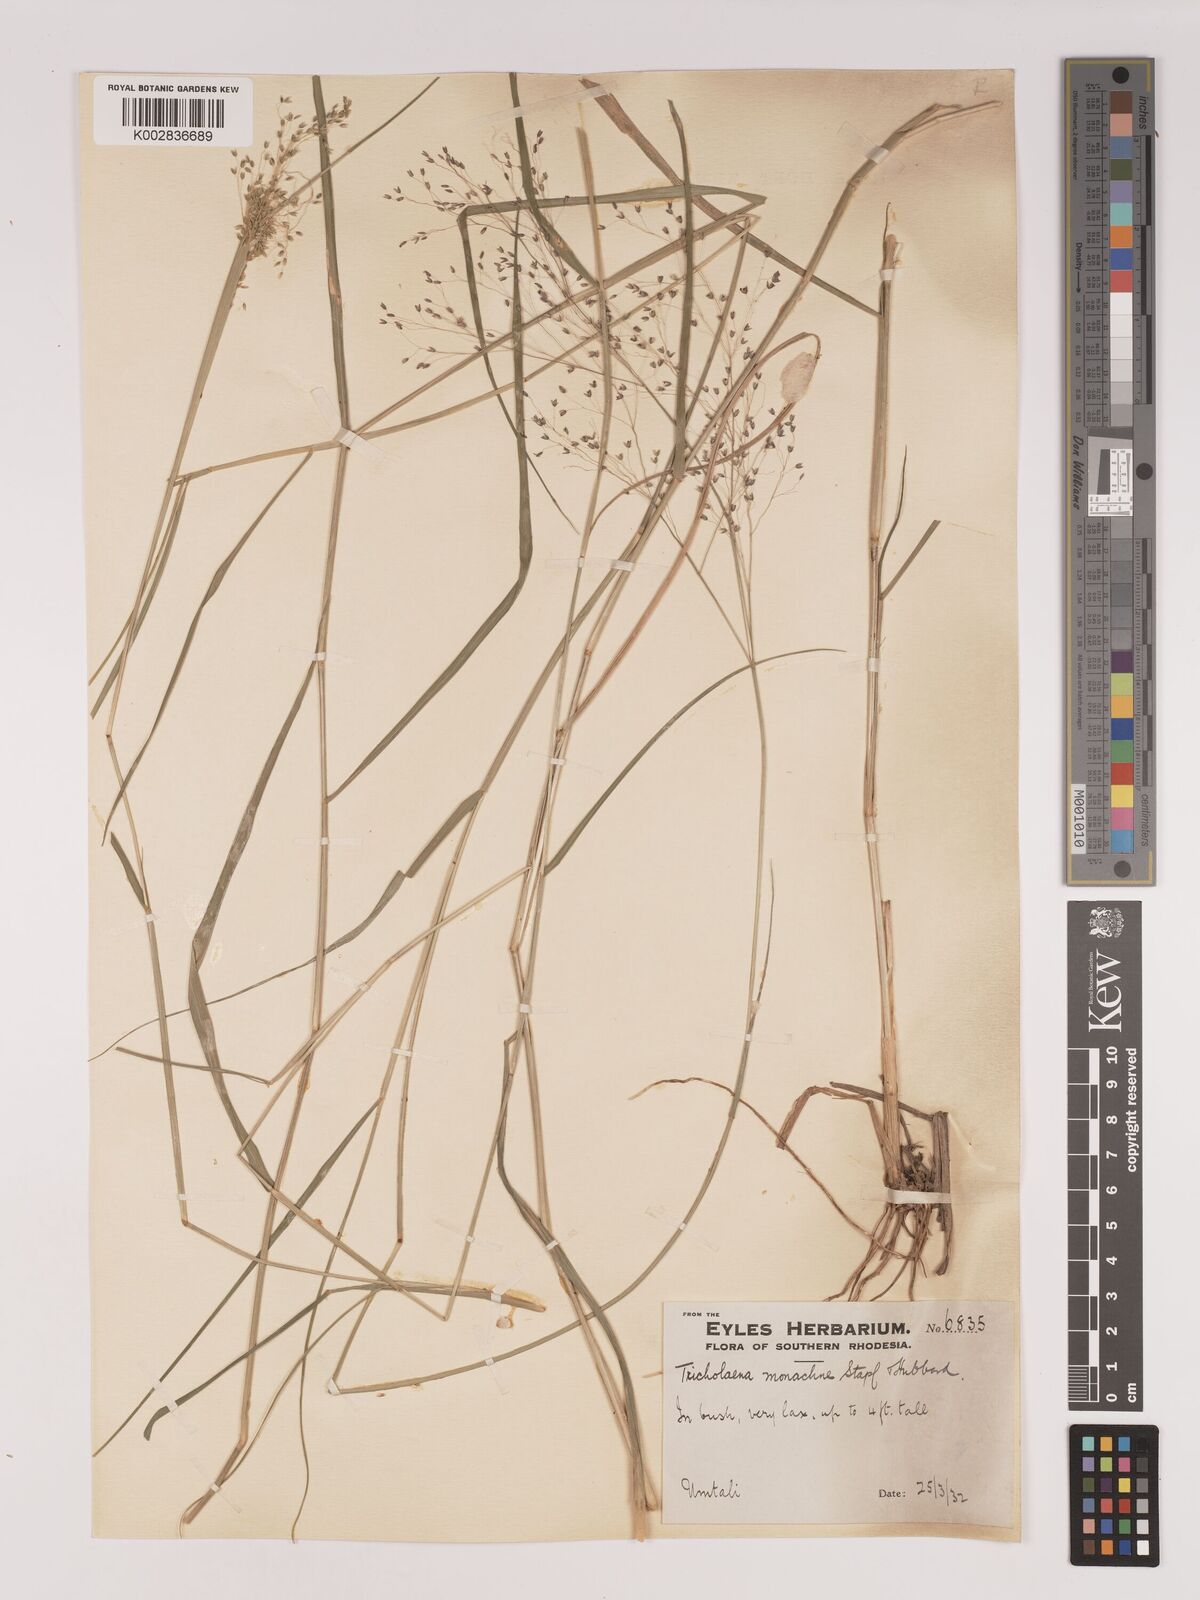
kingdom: Plantae
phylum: Tracheophyta
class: Liliopsida
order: Poales
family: Poaceae
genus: Tricholaena
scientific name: Tricholaena monachne
